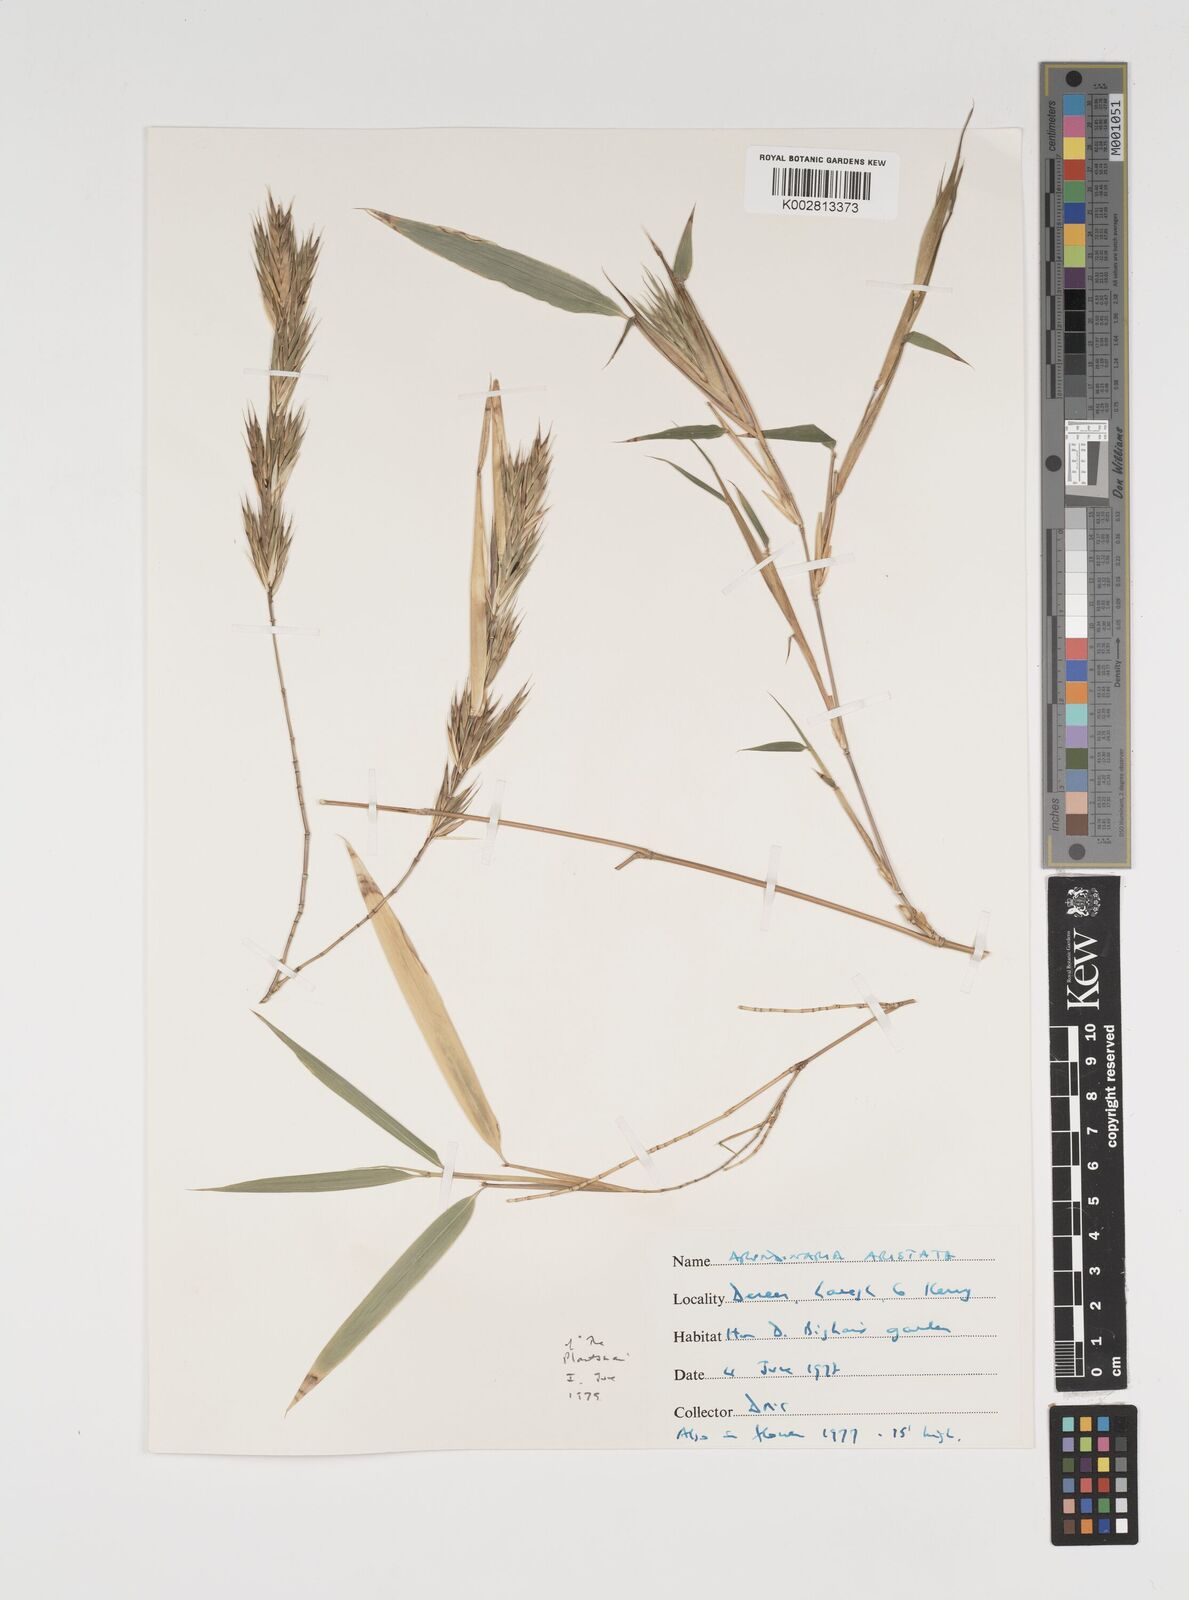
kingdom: Plantae
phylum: Tracheophyta
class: Liliopsida
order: Poales
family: Poaceae
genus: Thamnocalamus
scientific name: Thamnocalamus spathiflorus
